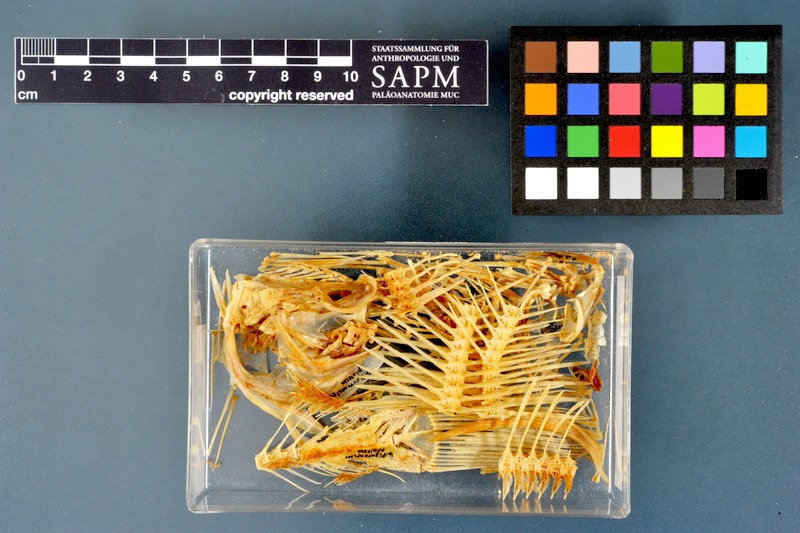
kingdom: Animalia
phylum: Chordata
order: Pleuronectiformes
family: Pleuronectidae
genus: Pleuronectes
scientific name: Pleuronectes platessa
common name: Plaice
